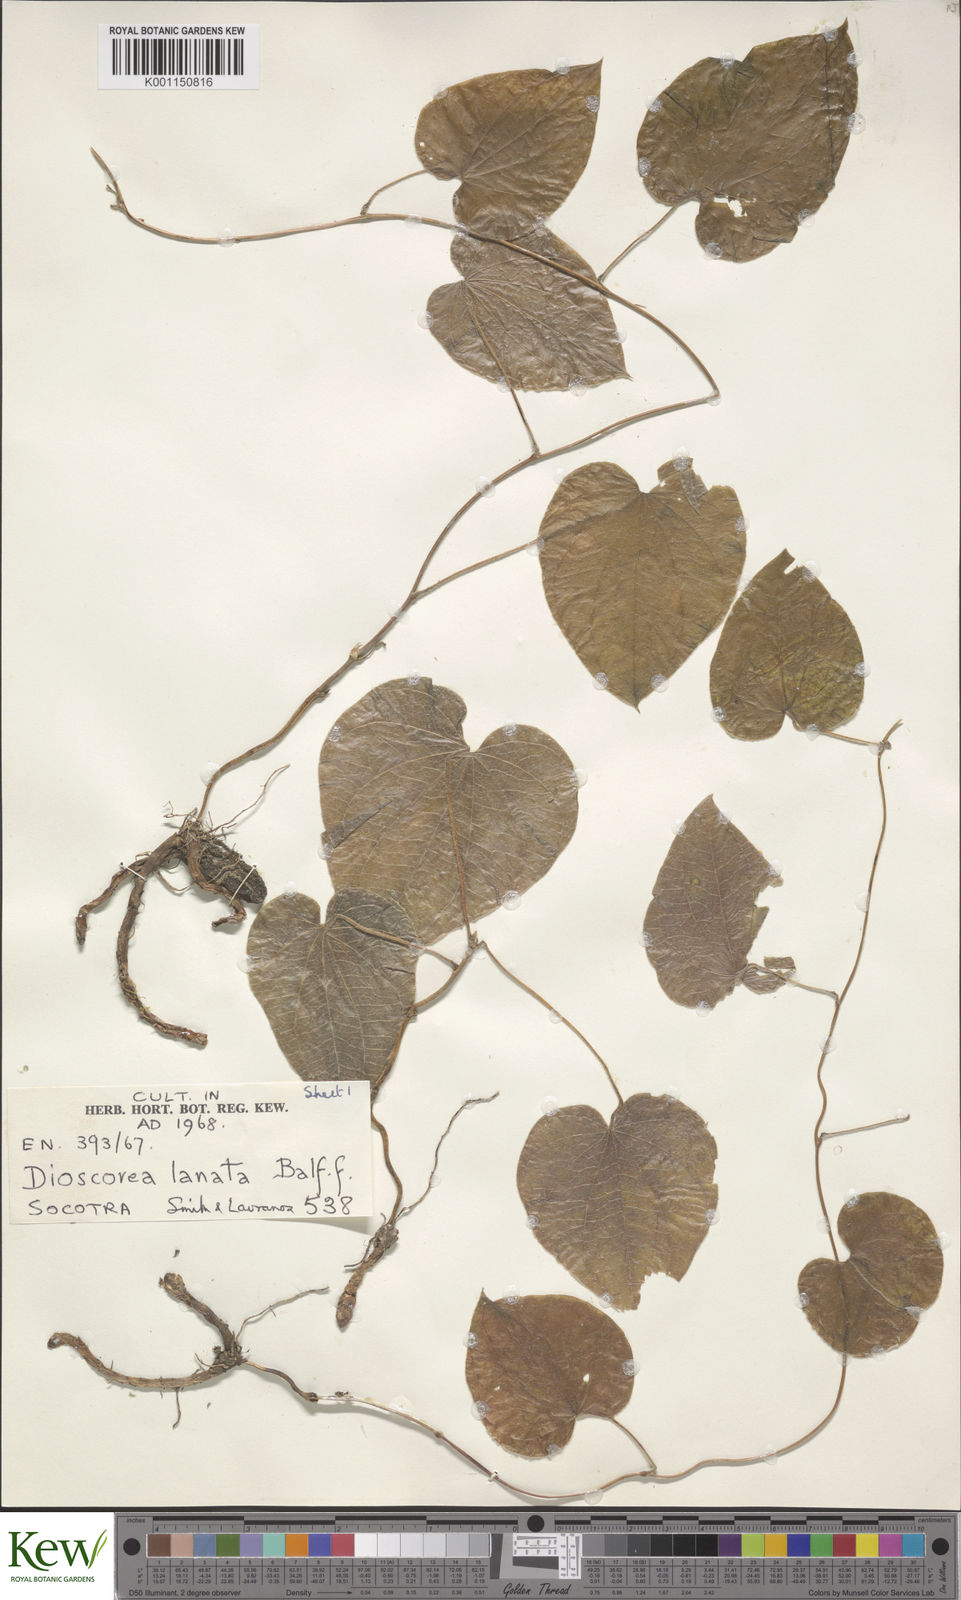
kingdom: Plantae
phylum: Tracheophyta
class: Liliopsida
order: Dioscoreales
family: Dioscoreaceae
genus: Dioscorea
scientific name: Dioscorea
